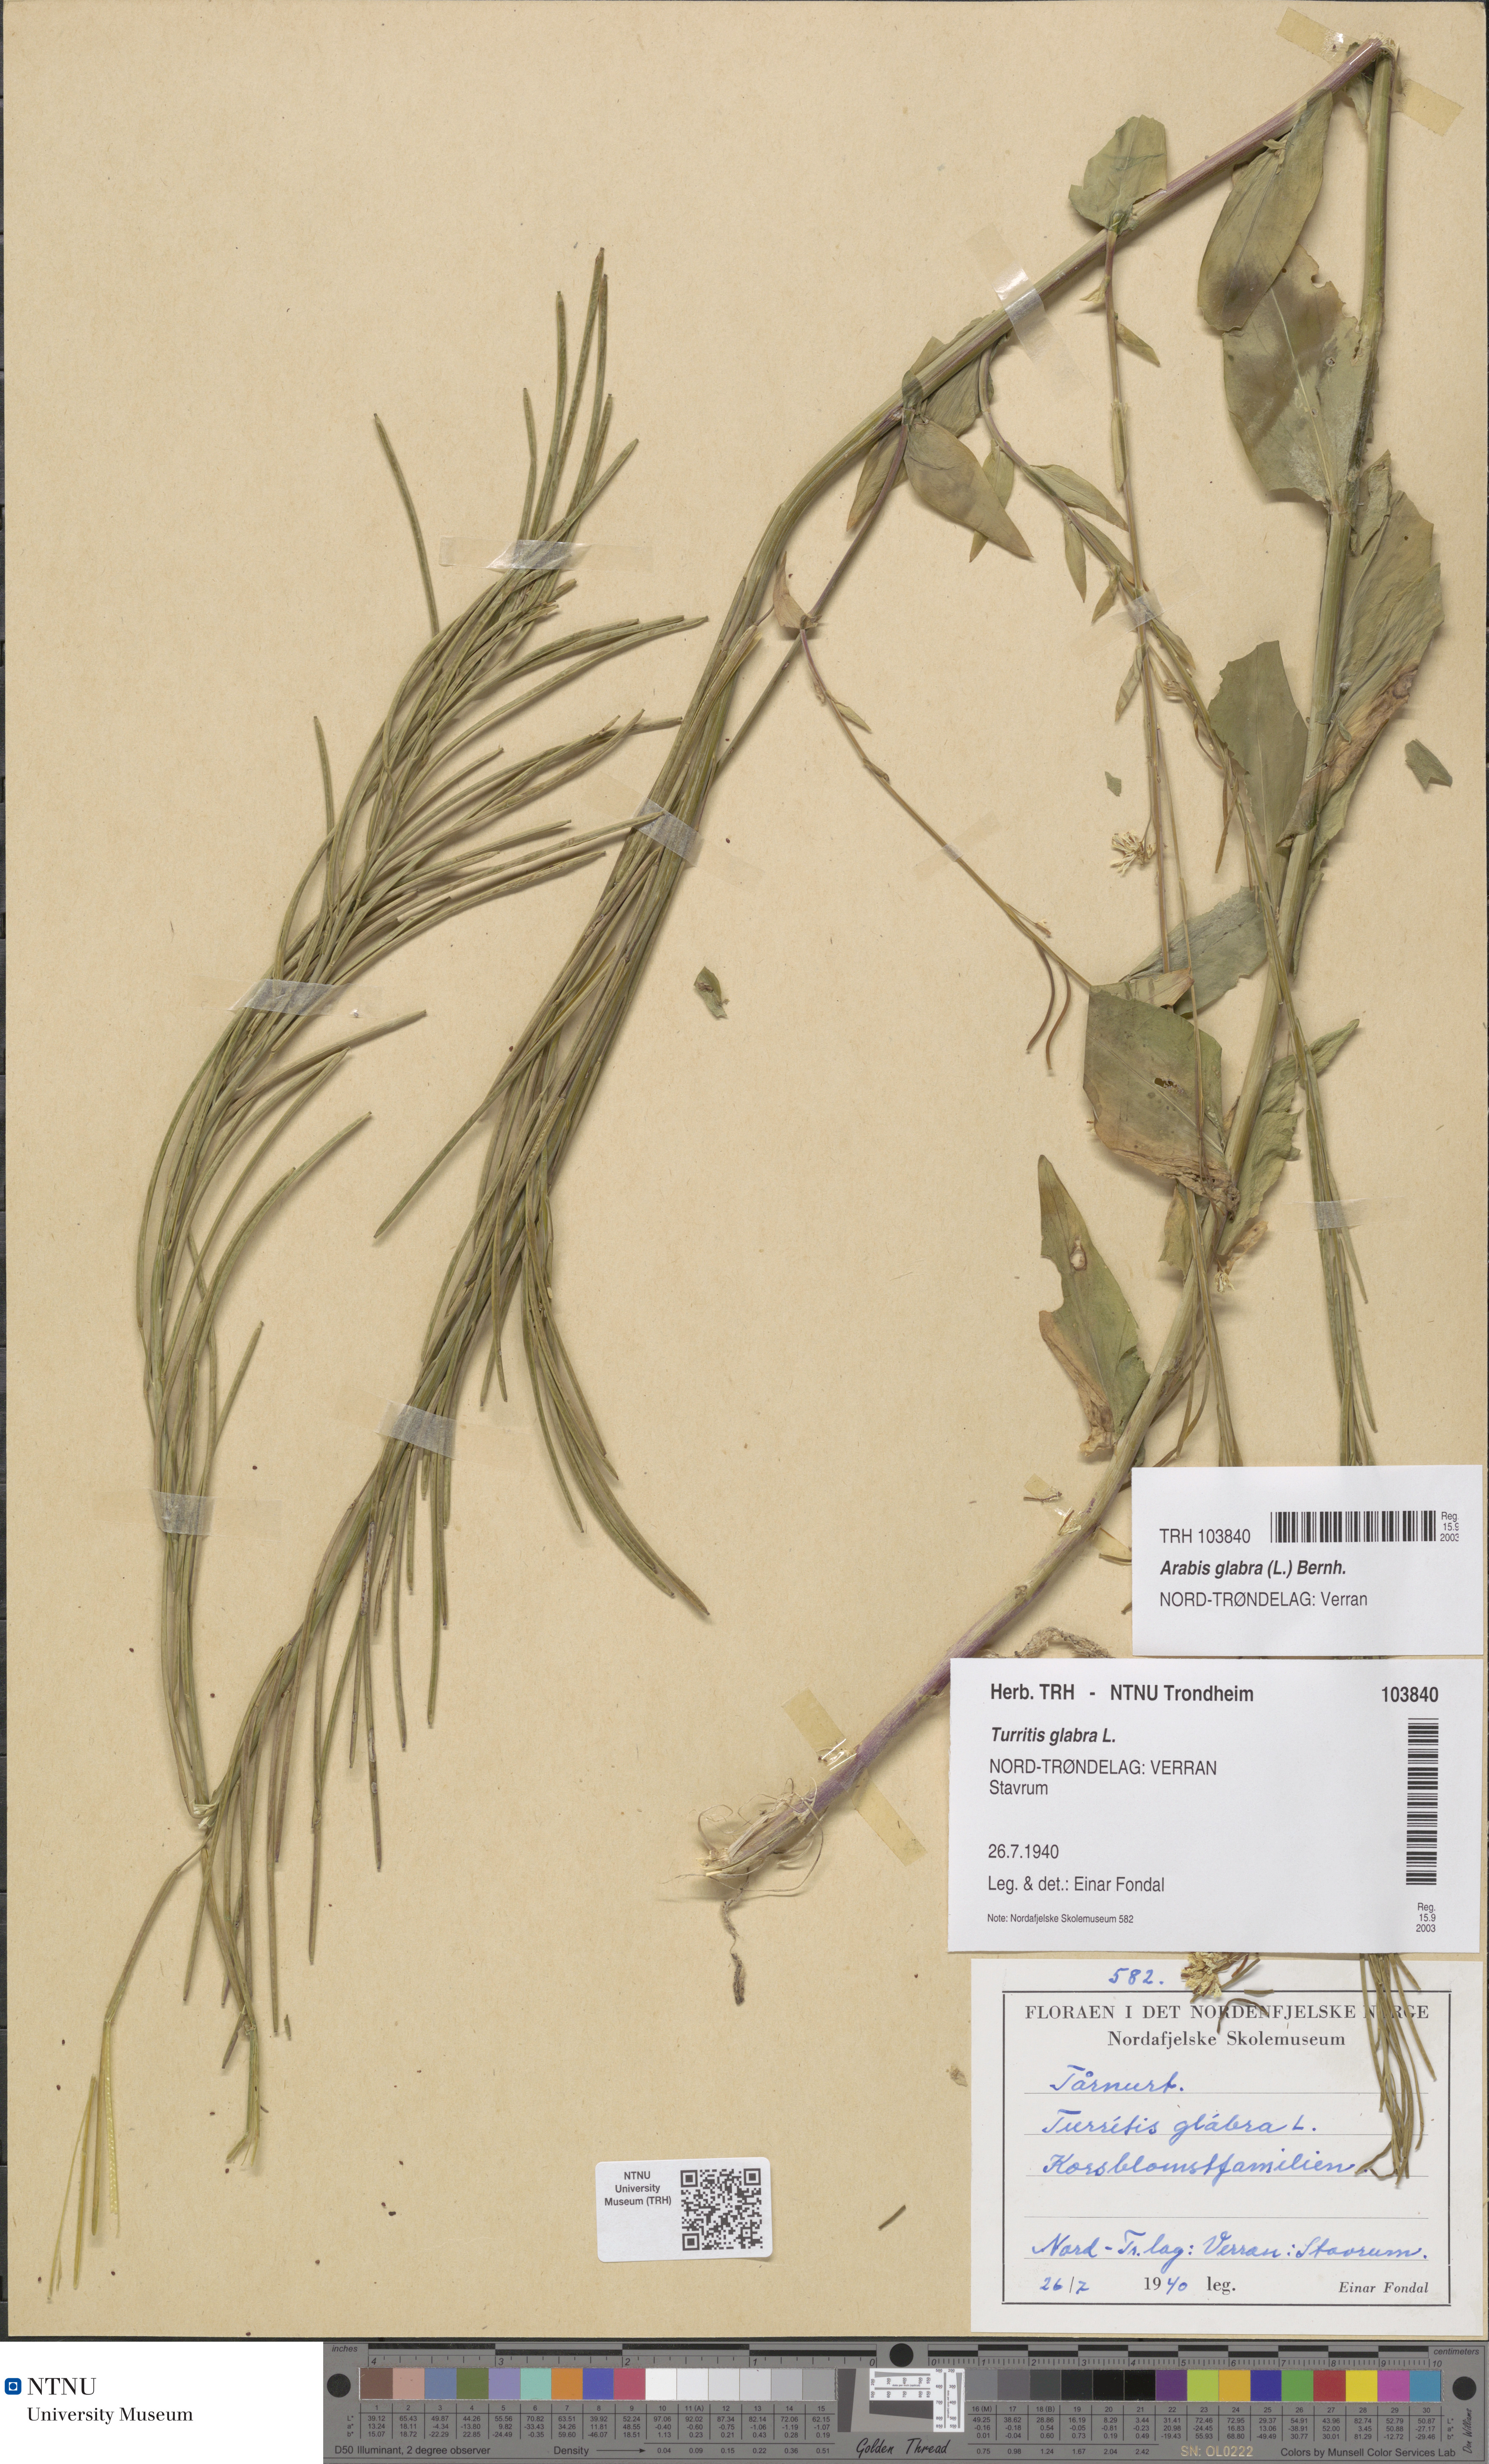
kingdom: Plantae
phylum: Tracheophyta
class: Magnoliopsida
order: Brassicales
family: Brassicaceae
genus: Turritis
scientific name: Turritis glabra
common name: Tower rockcress
